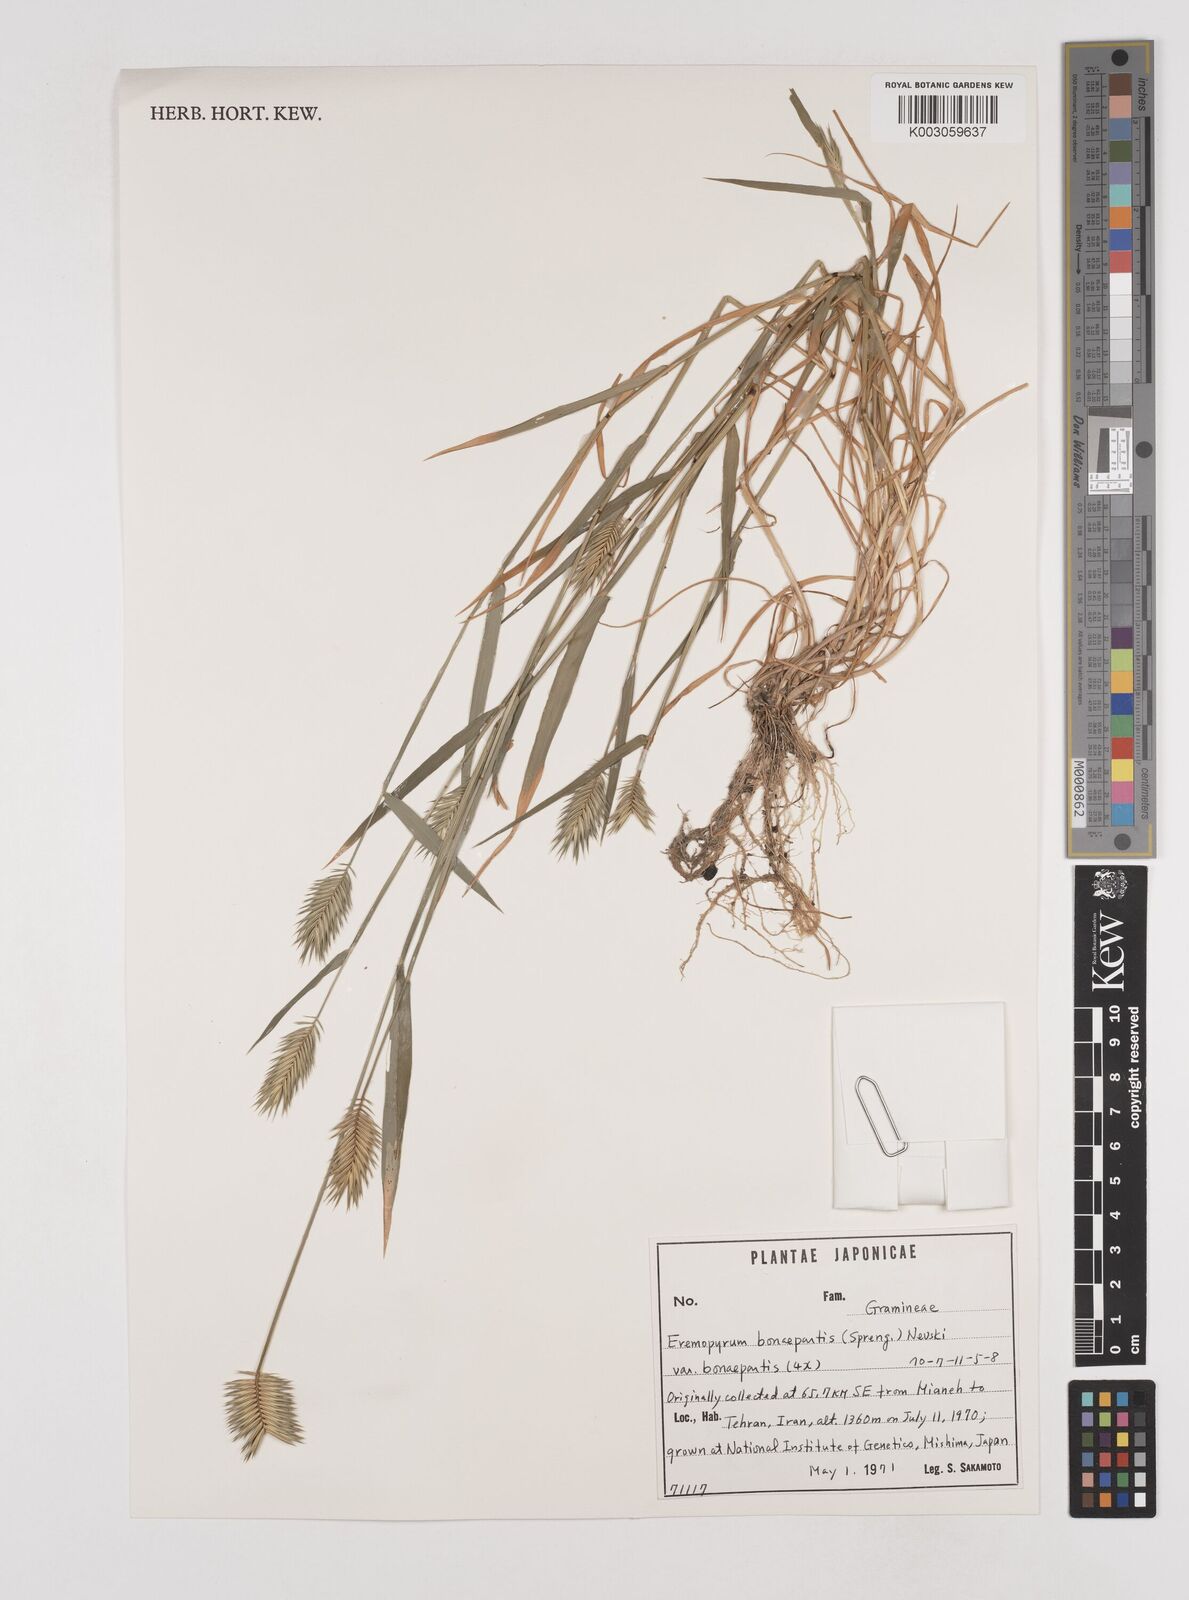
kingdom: Plantae
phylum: Tracheophyta
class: Liliopsida
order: Poales
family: Poaceae
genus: Eremopyrum
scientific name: Eremopyrum bonaepartis
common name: Tapertip false wheatgrass
